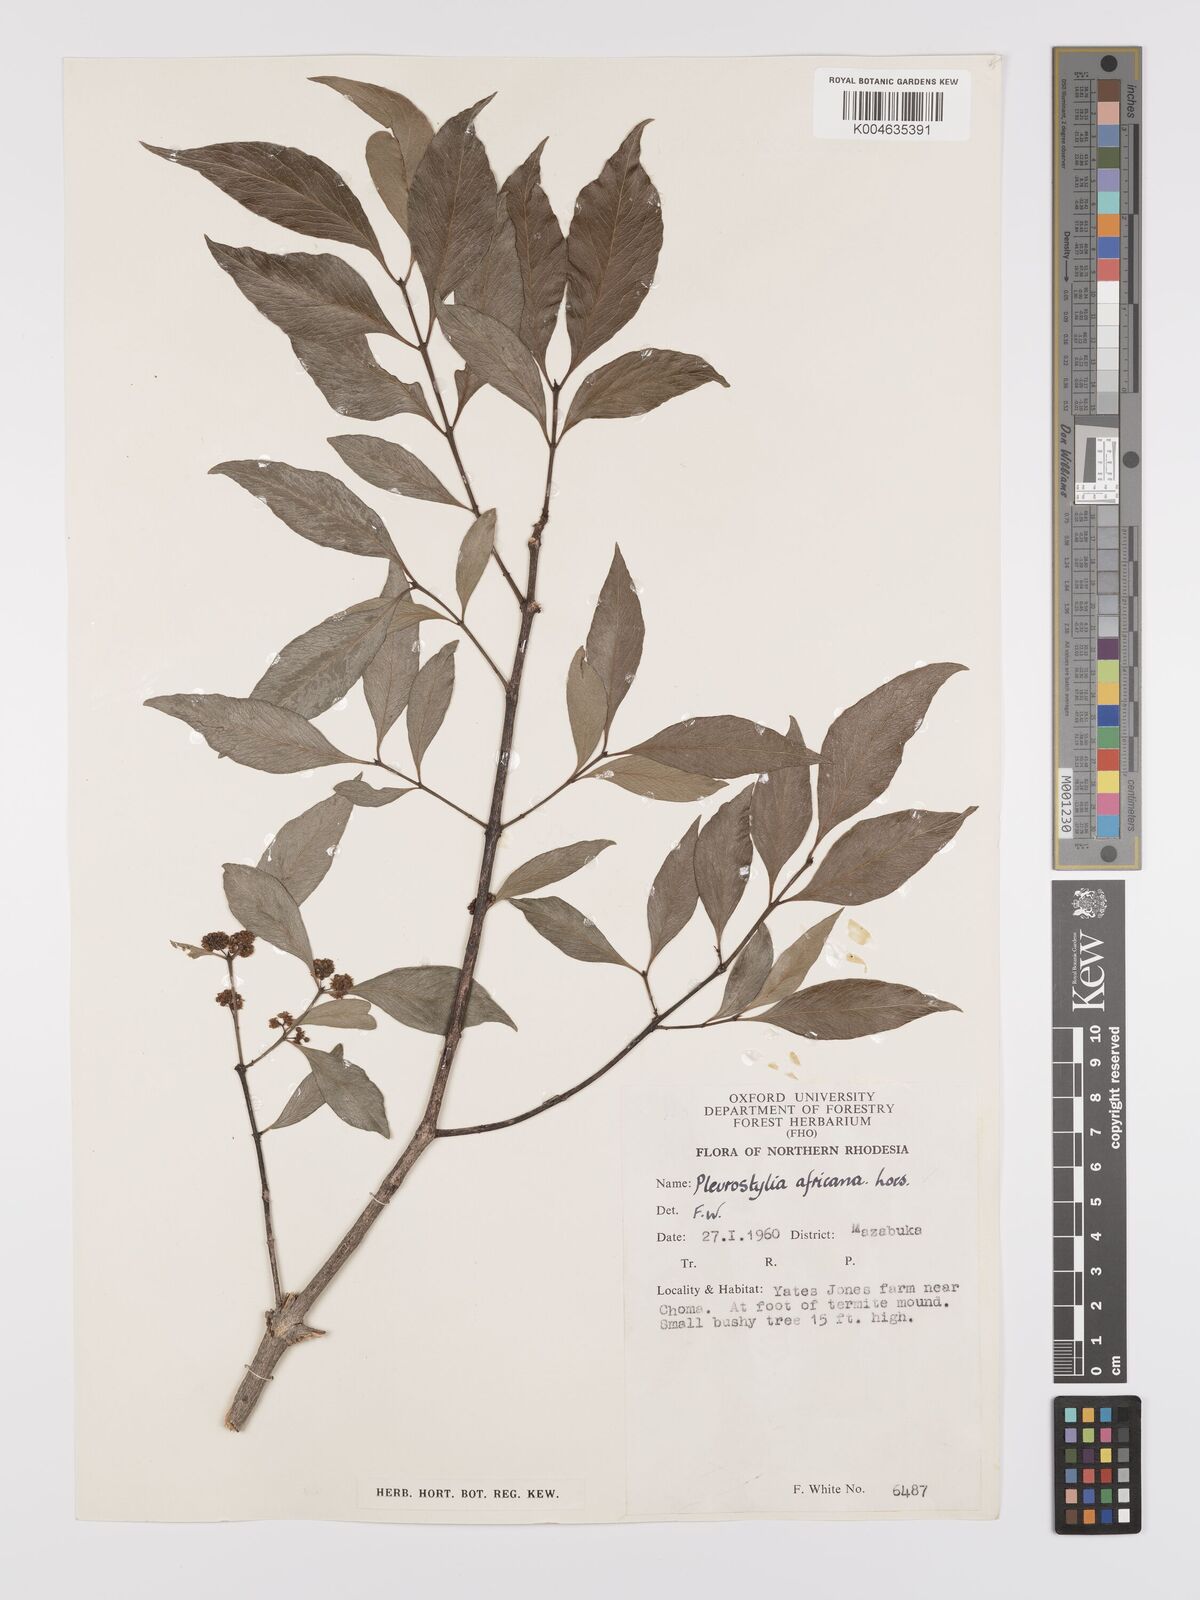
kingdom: Plantae
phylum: Tracheophyta
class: Magnoliopsida
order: Celastrales
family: Celastraceae
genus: Pleurostylia
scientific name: Pleurostylia africana
